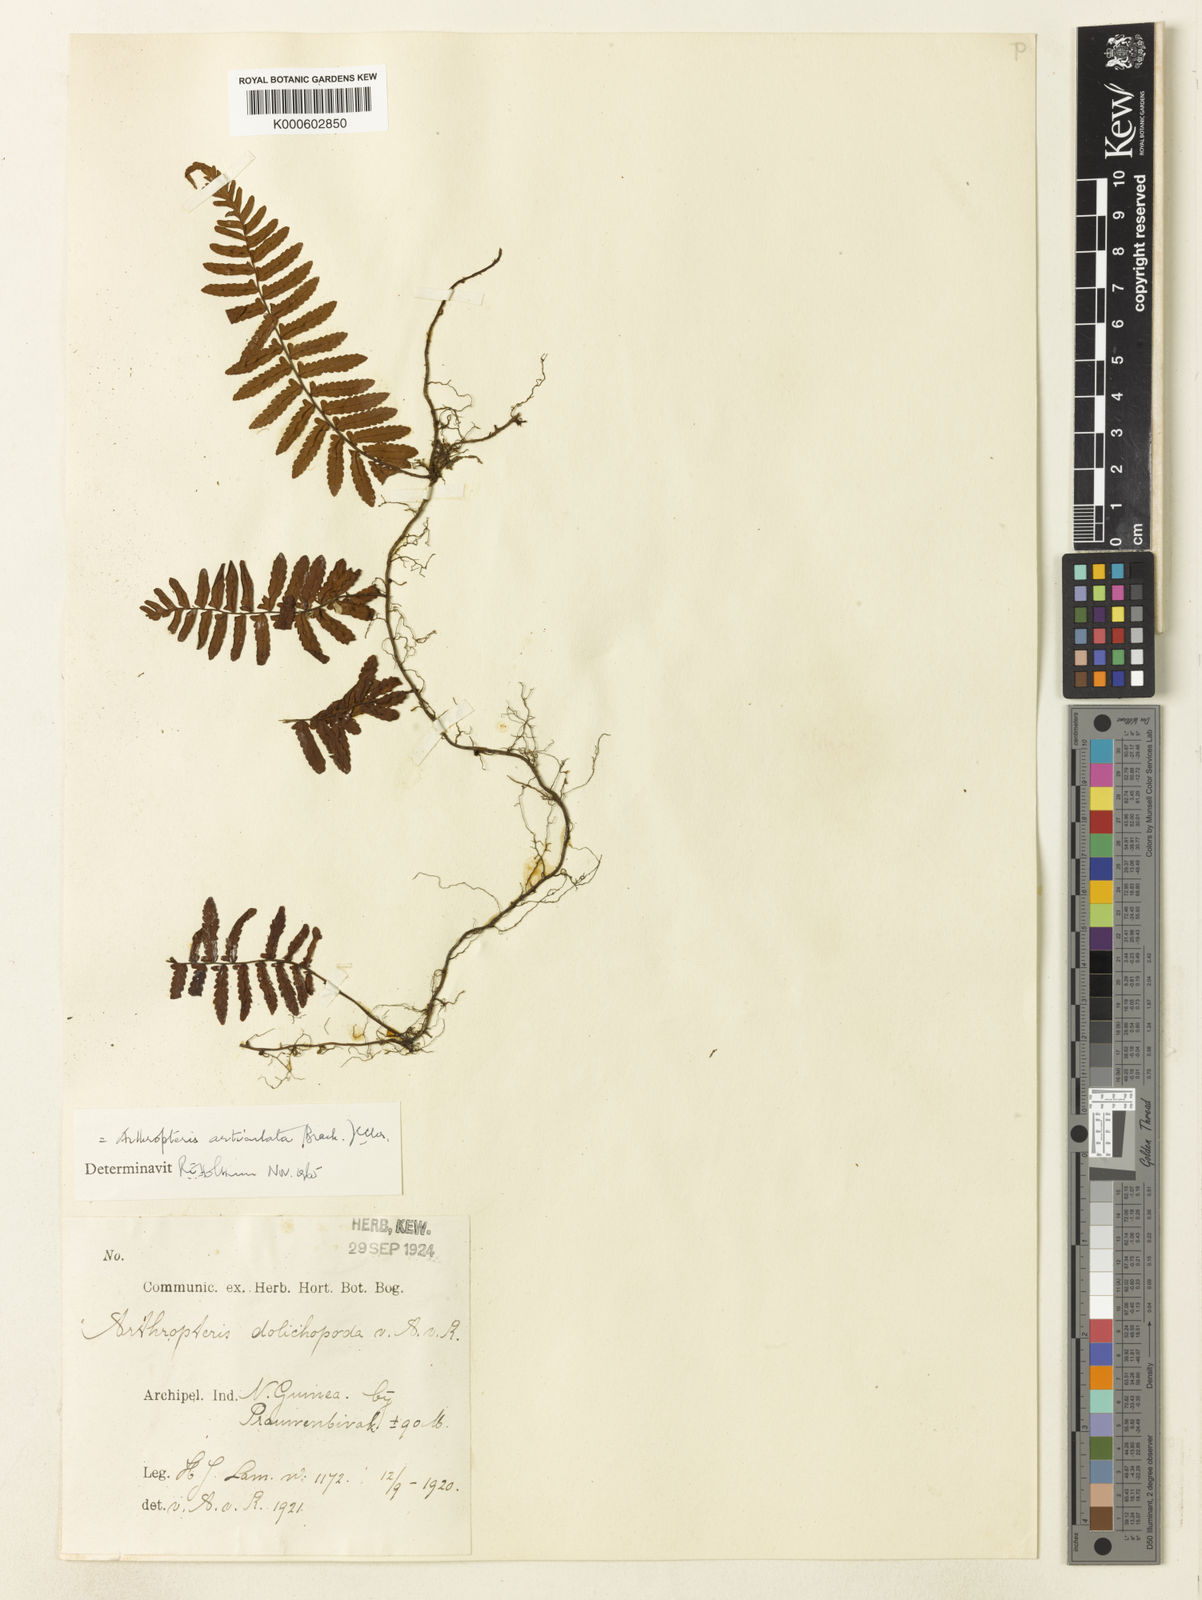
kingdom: Plantae
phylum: Tracheophyta
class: Polypodiopsida
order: Polypodiales
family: Tectariaceae
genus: Arthropteris
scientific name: Arthropteris articulata
